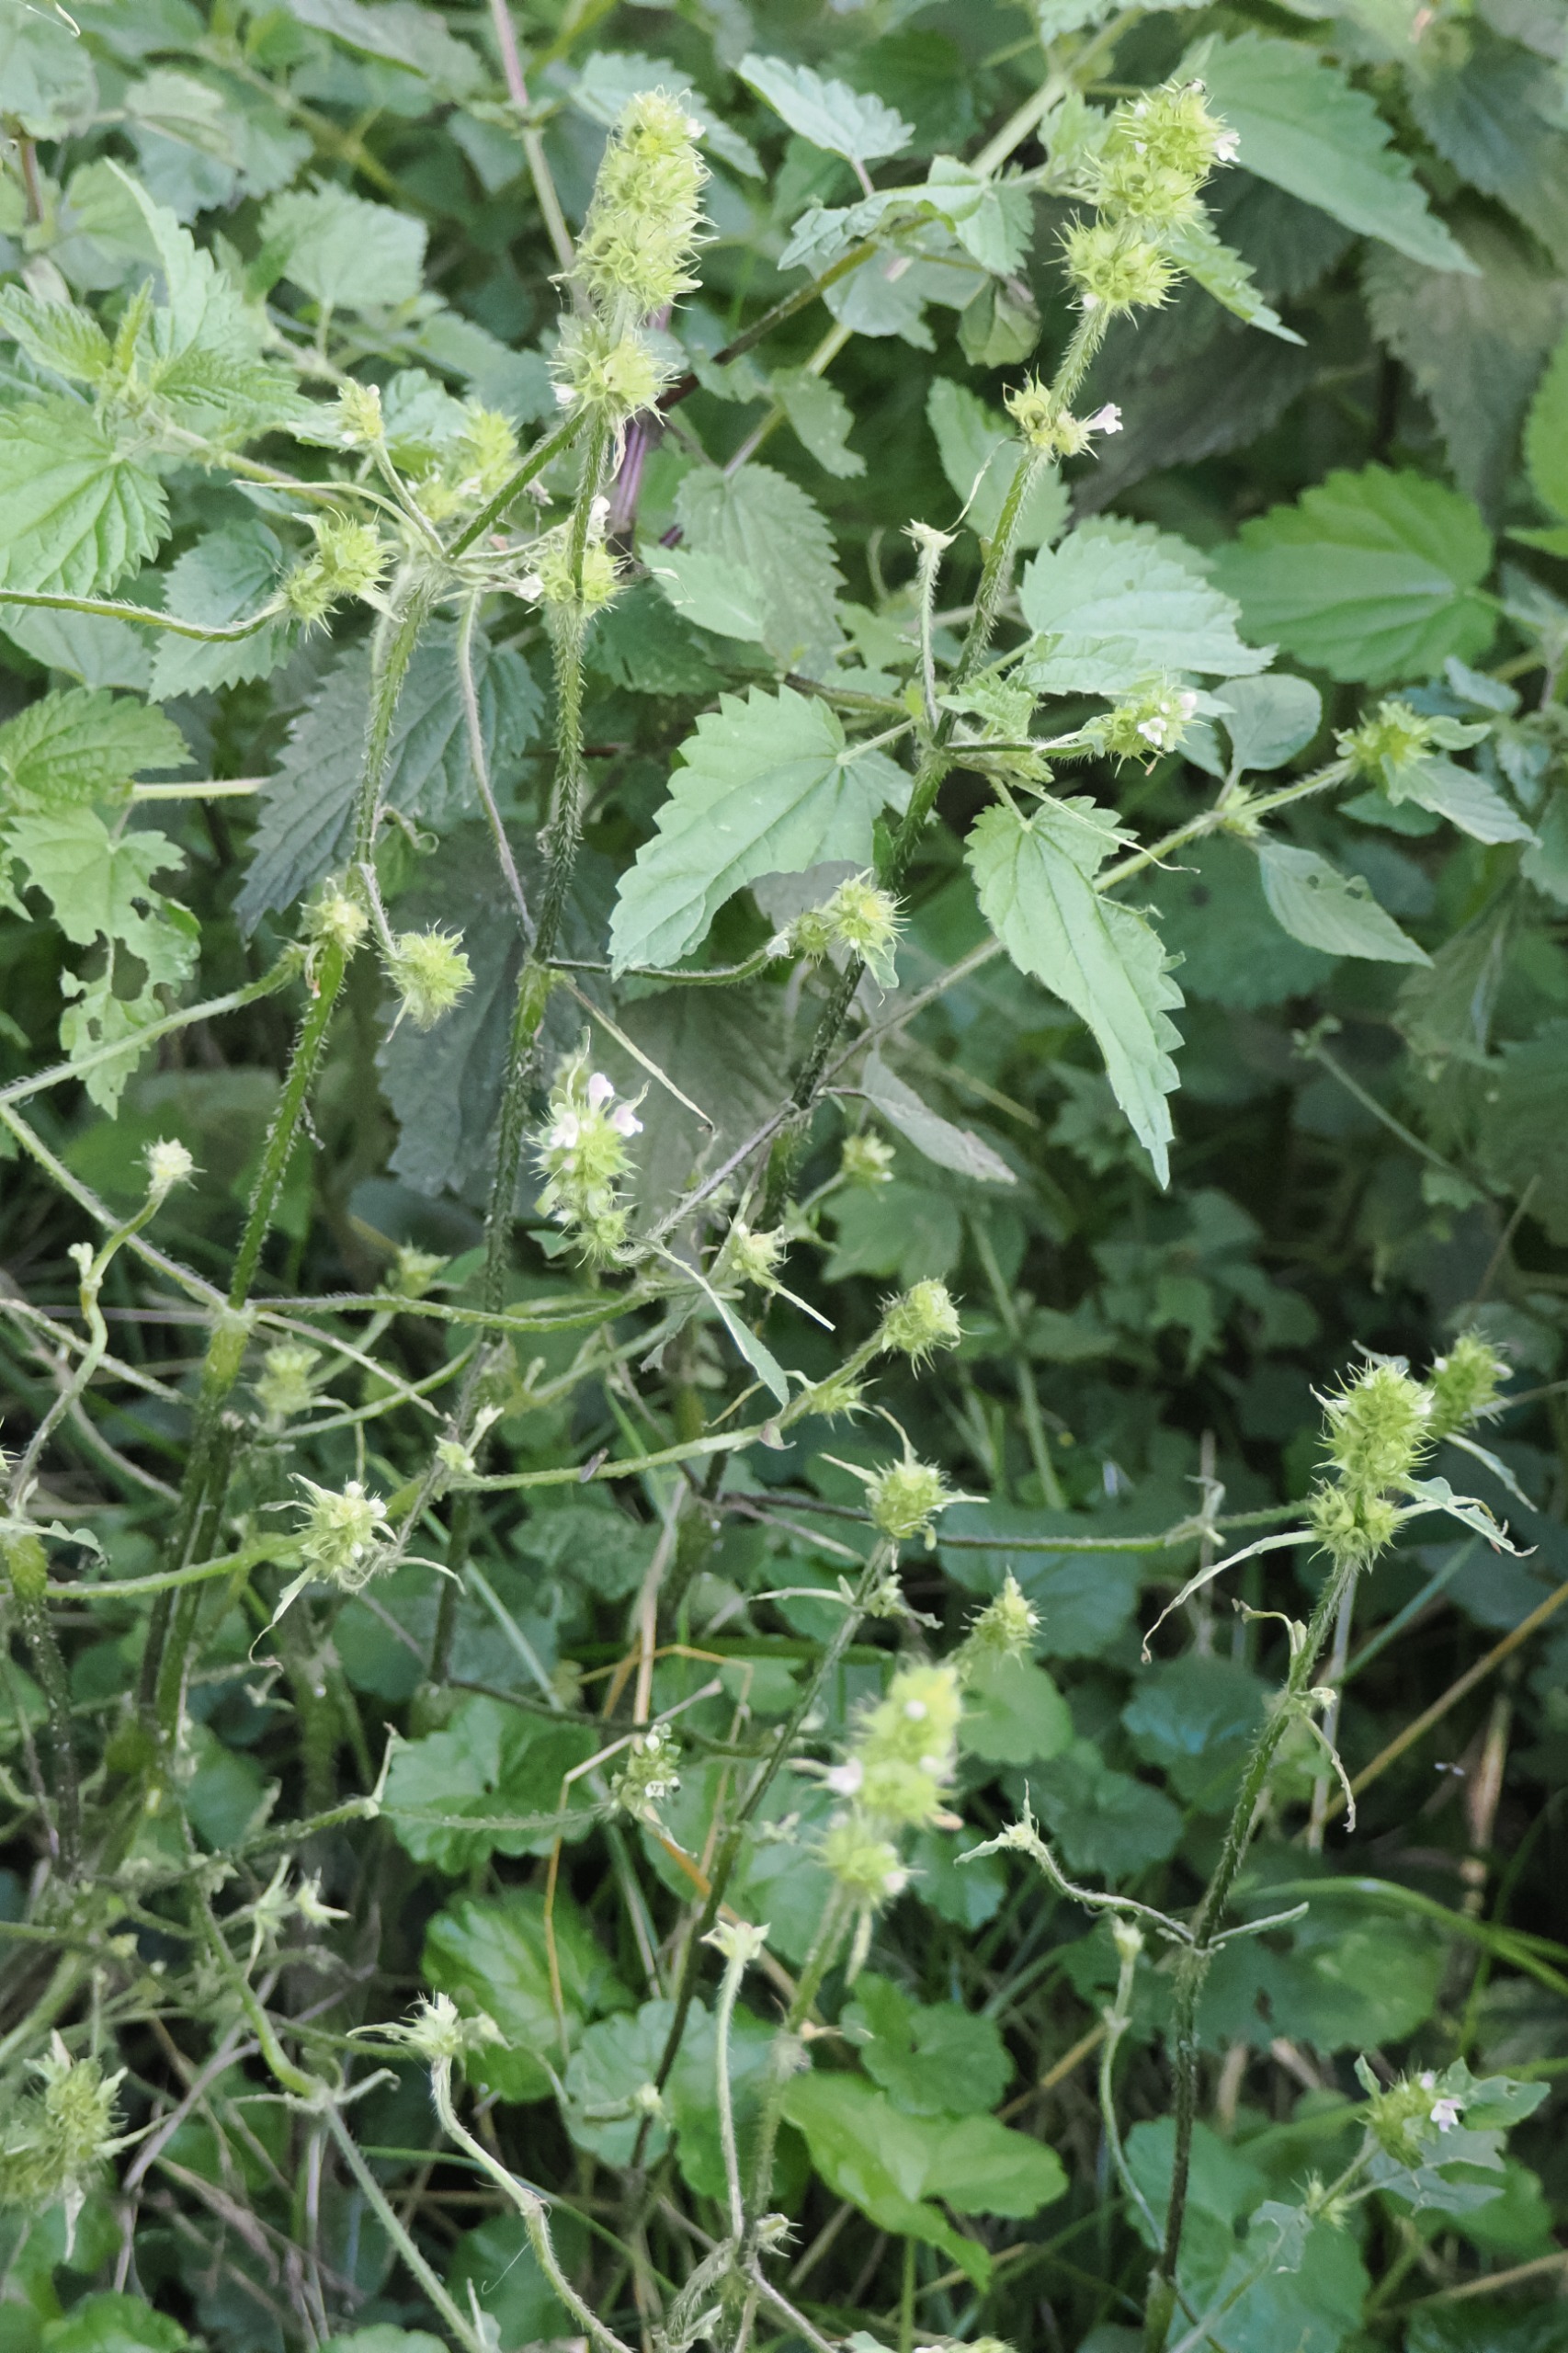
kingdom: Plantae
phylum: Tracheophyta
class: Magnoliopsida
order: Lamiales
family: Lamiaceae
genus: Galeopsis
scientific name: Galeopsis
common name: Hanekroslægten
